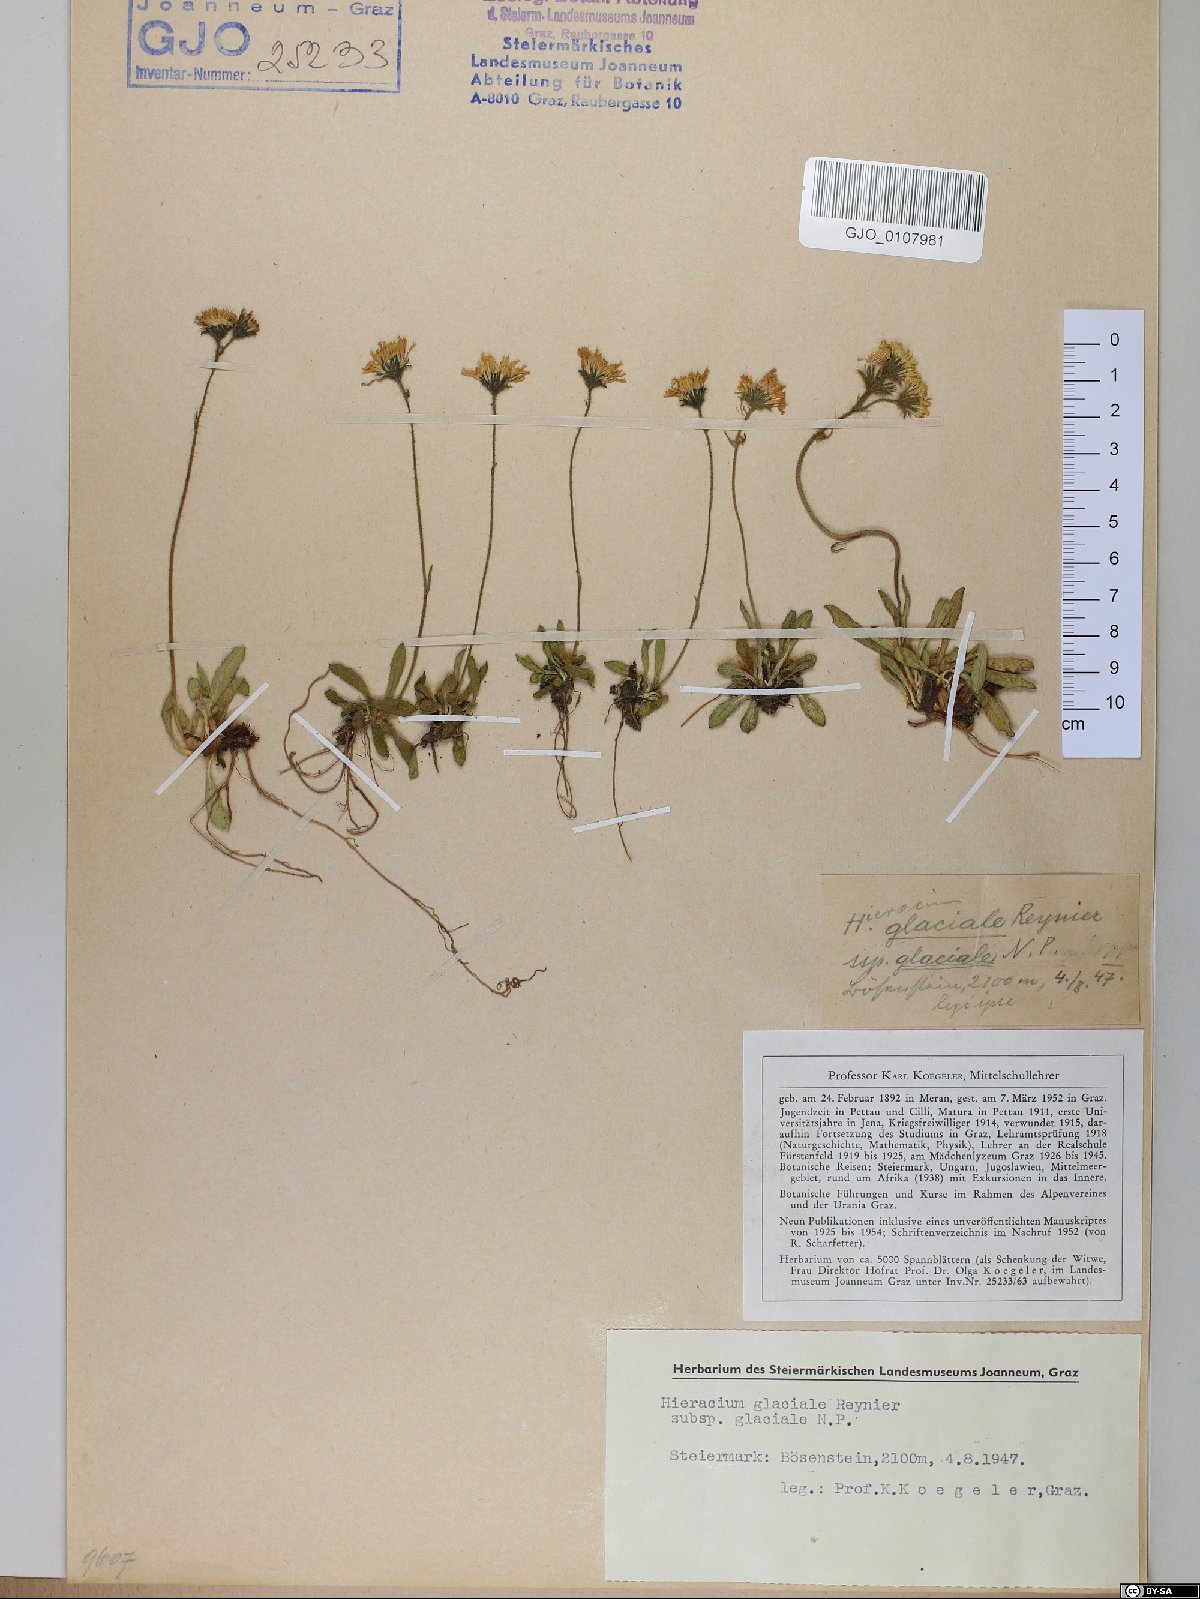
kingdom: Plantae
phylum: Tracheophyta
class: Magnoliopsida
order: Asterales
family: Asteraceae
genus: Pilosella
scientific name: Pilosella glacialis
